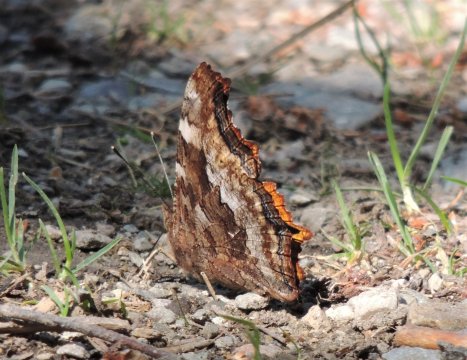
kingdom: Animalia
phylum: Arthropoda
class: Insecta
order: Lepidoptera
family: Nymphalidae
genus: Polygonia
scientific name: Polygonia vaualbum
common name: Compton Tortoiseshell
